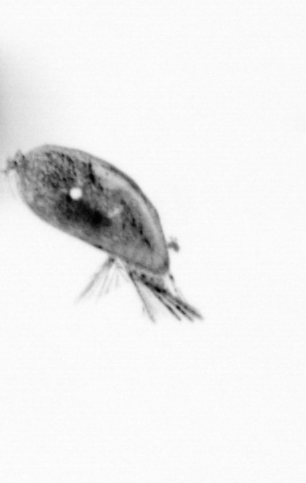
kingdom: Animalia
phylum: Arthropoda
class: Maxillopoda
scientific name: Maxillopoda
